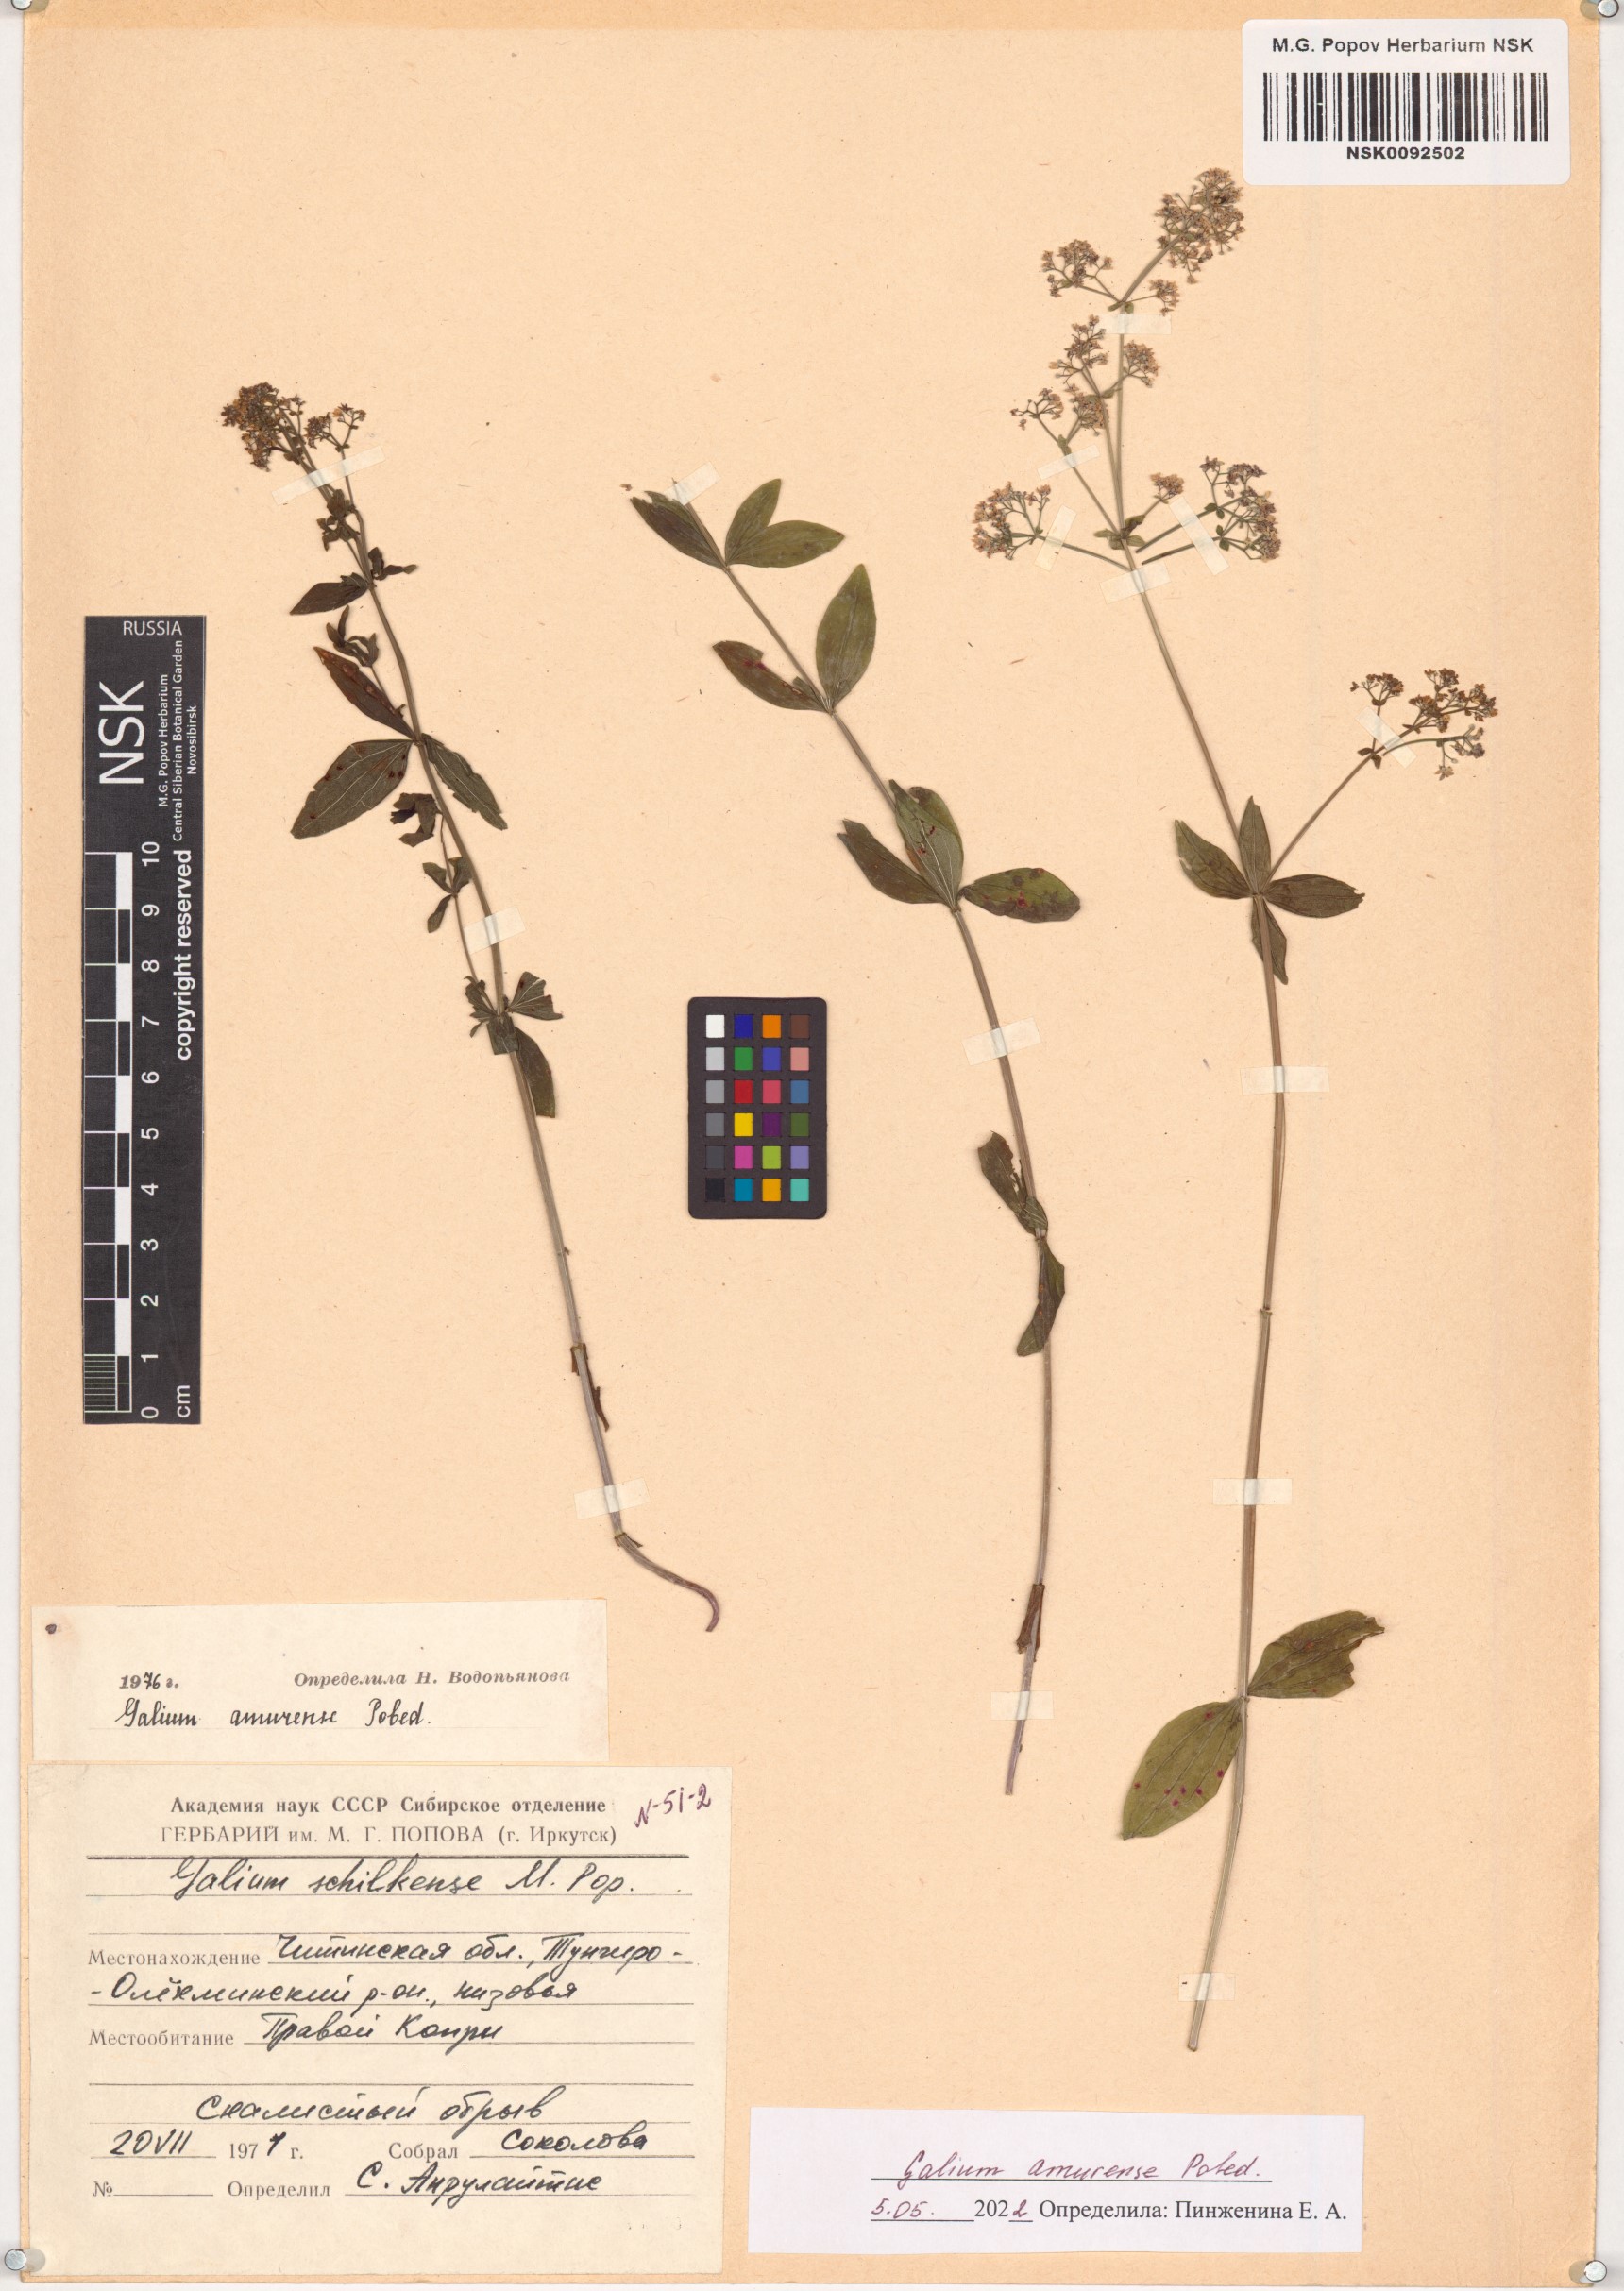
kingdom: Plantae
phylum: Tracheophyta
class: Magnoliopsida
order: Gentianales
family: Rubiaceae
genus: Galium
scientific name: Galium amurense
